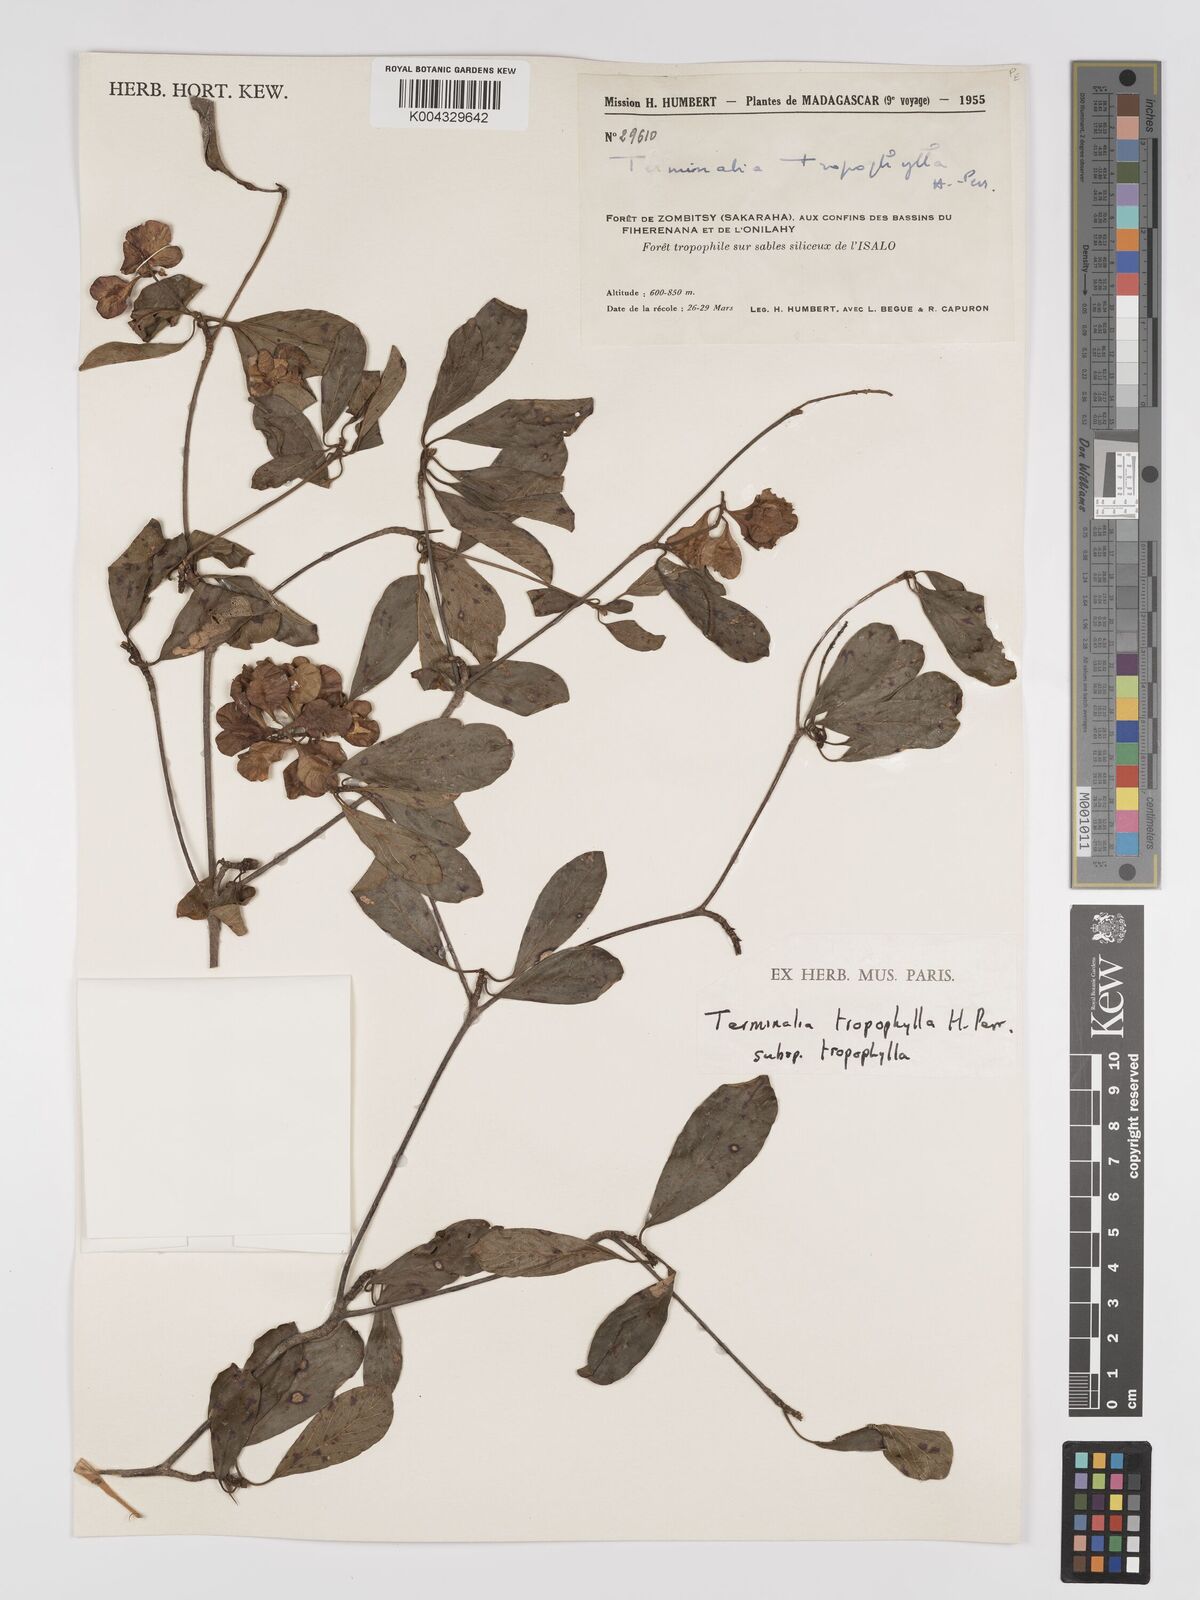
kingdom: Plantae
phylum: Tracheophyta
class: Magnoliopsida
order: Myrtales
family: Combretaceae
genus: Terminalia
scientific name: Terminalia tropophylla
